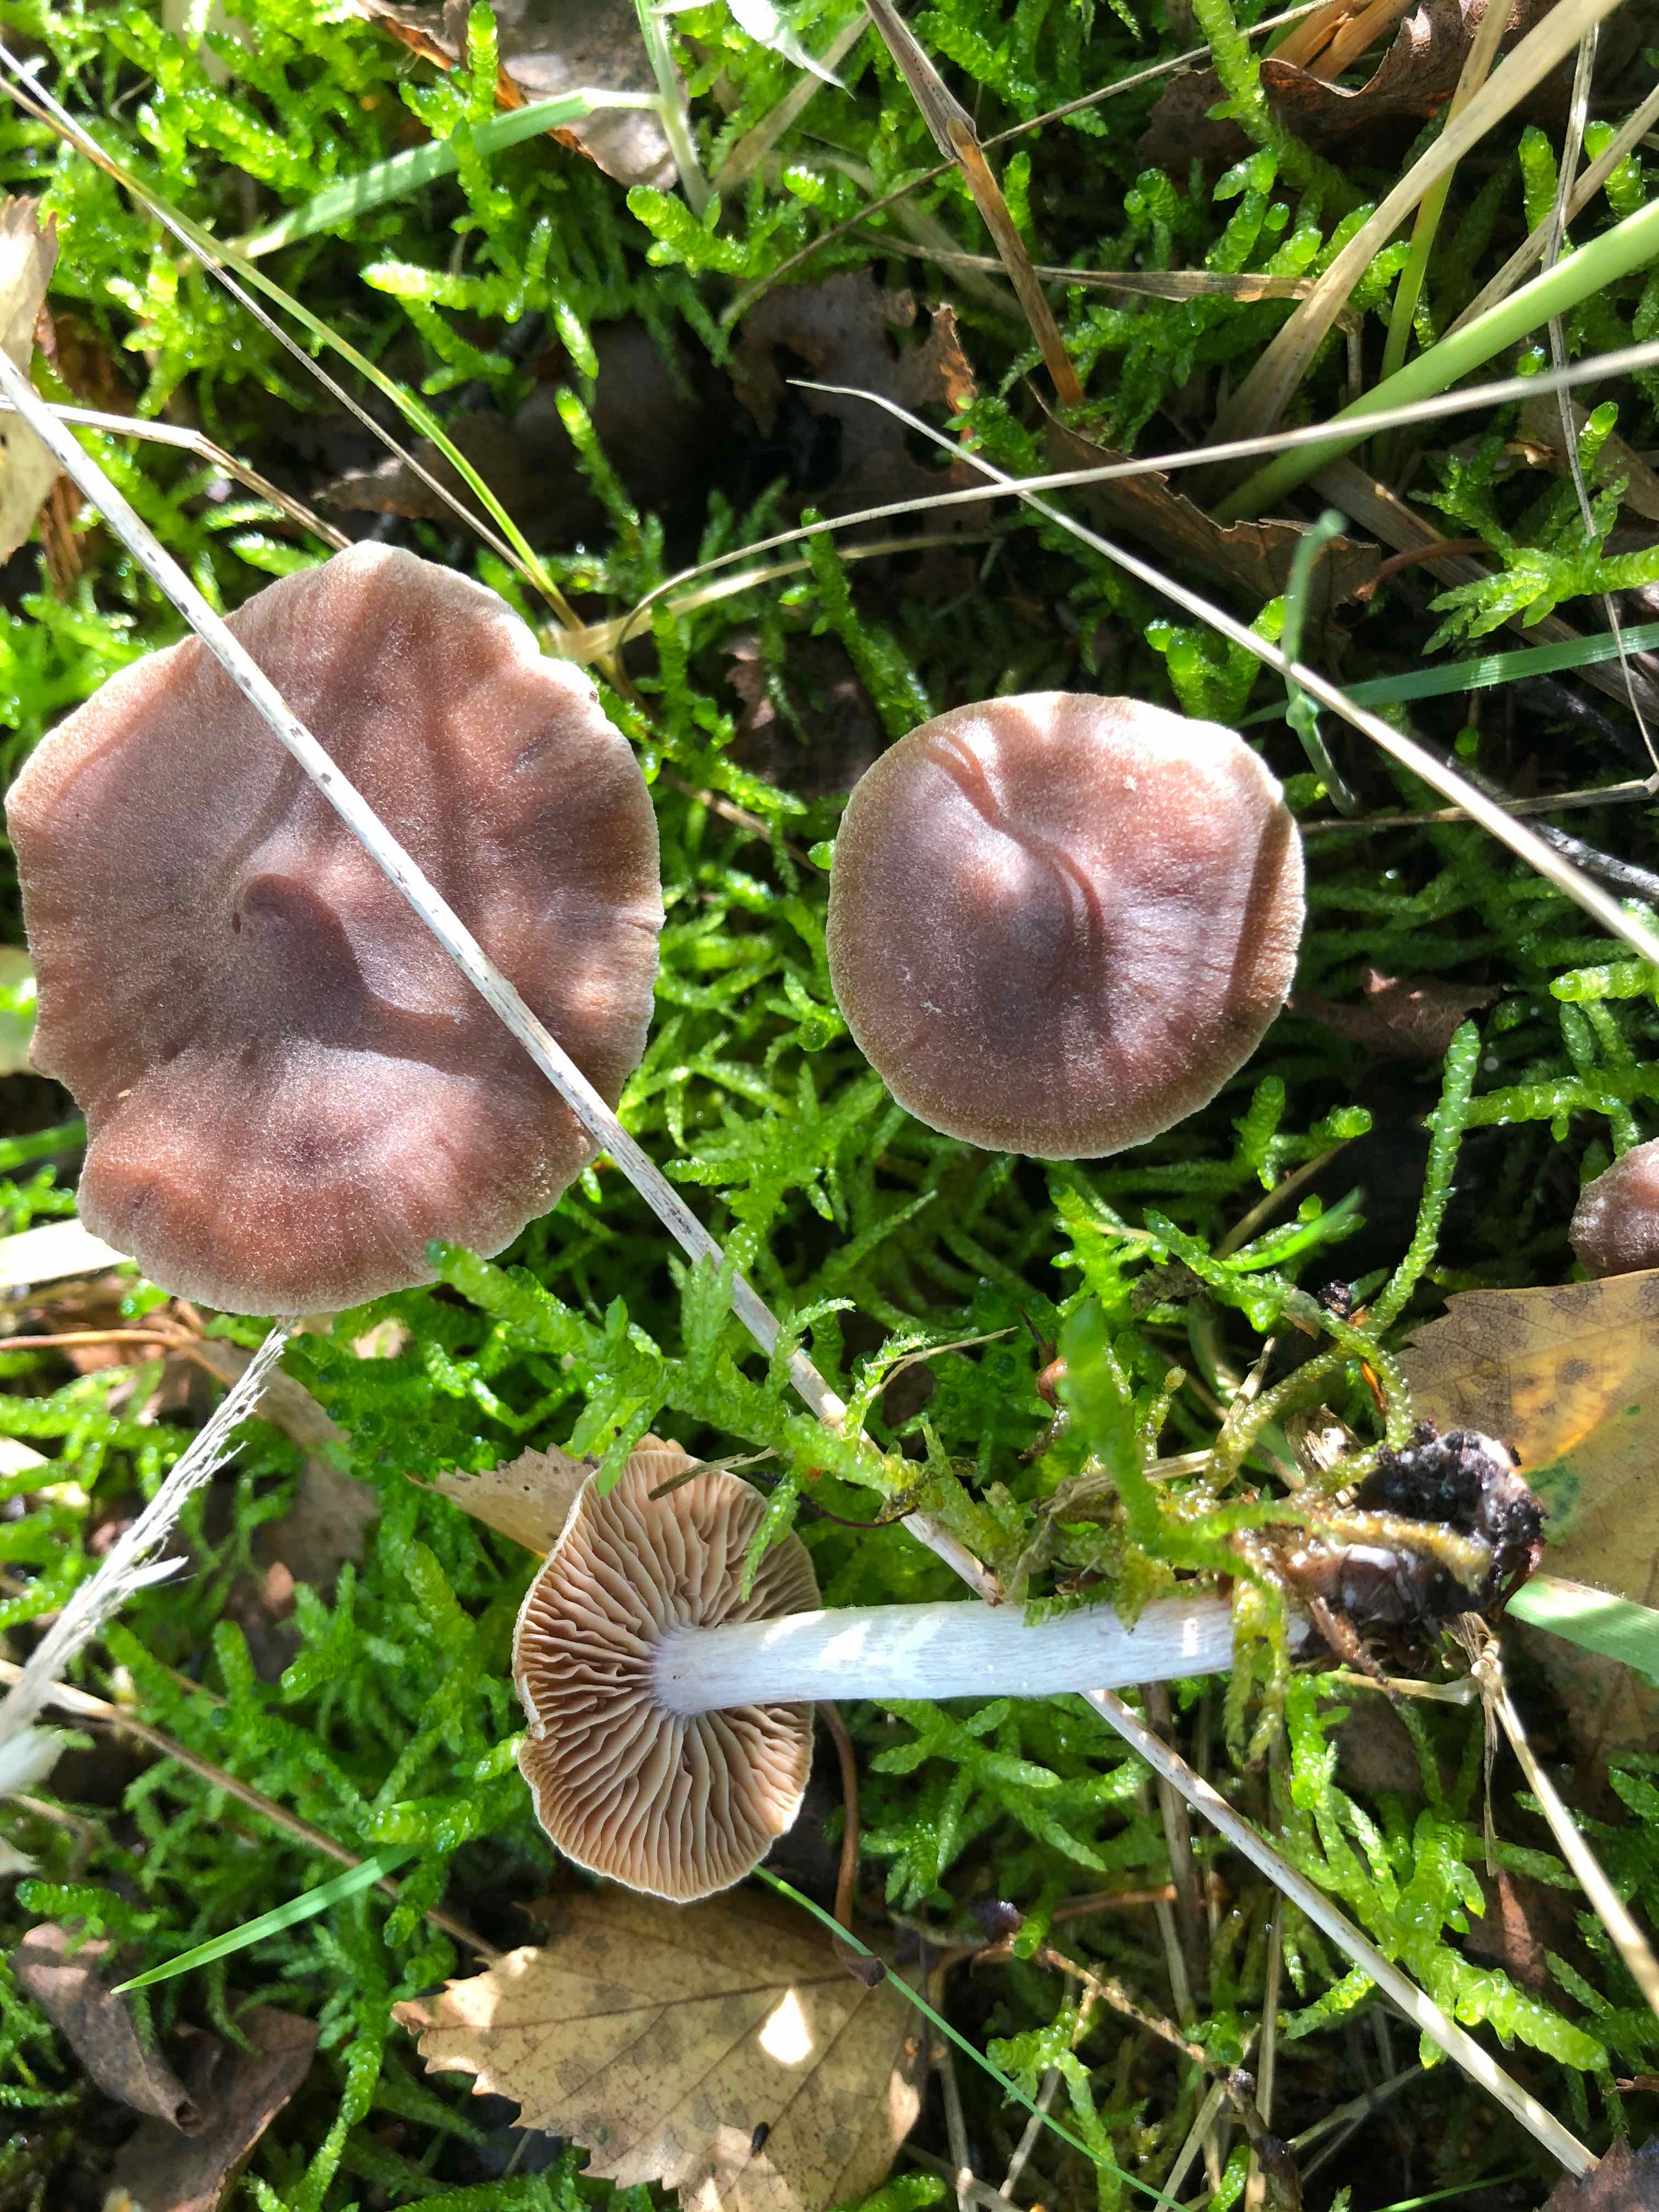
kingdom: Fungi
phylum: Basidiomycota
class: Agaricomycetes
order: Agaricales
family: Cortinariaceae
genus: Cortinarius
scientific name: Cortinarius
